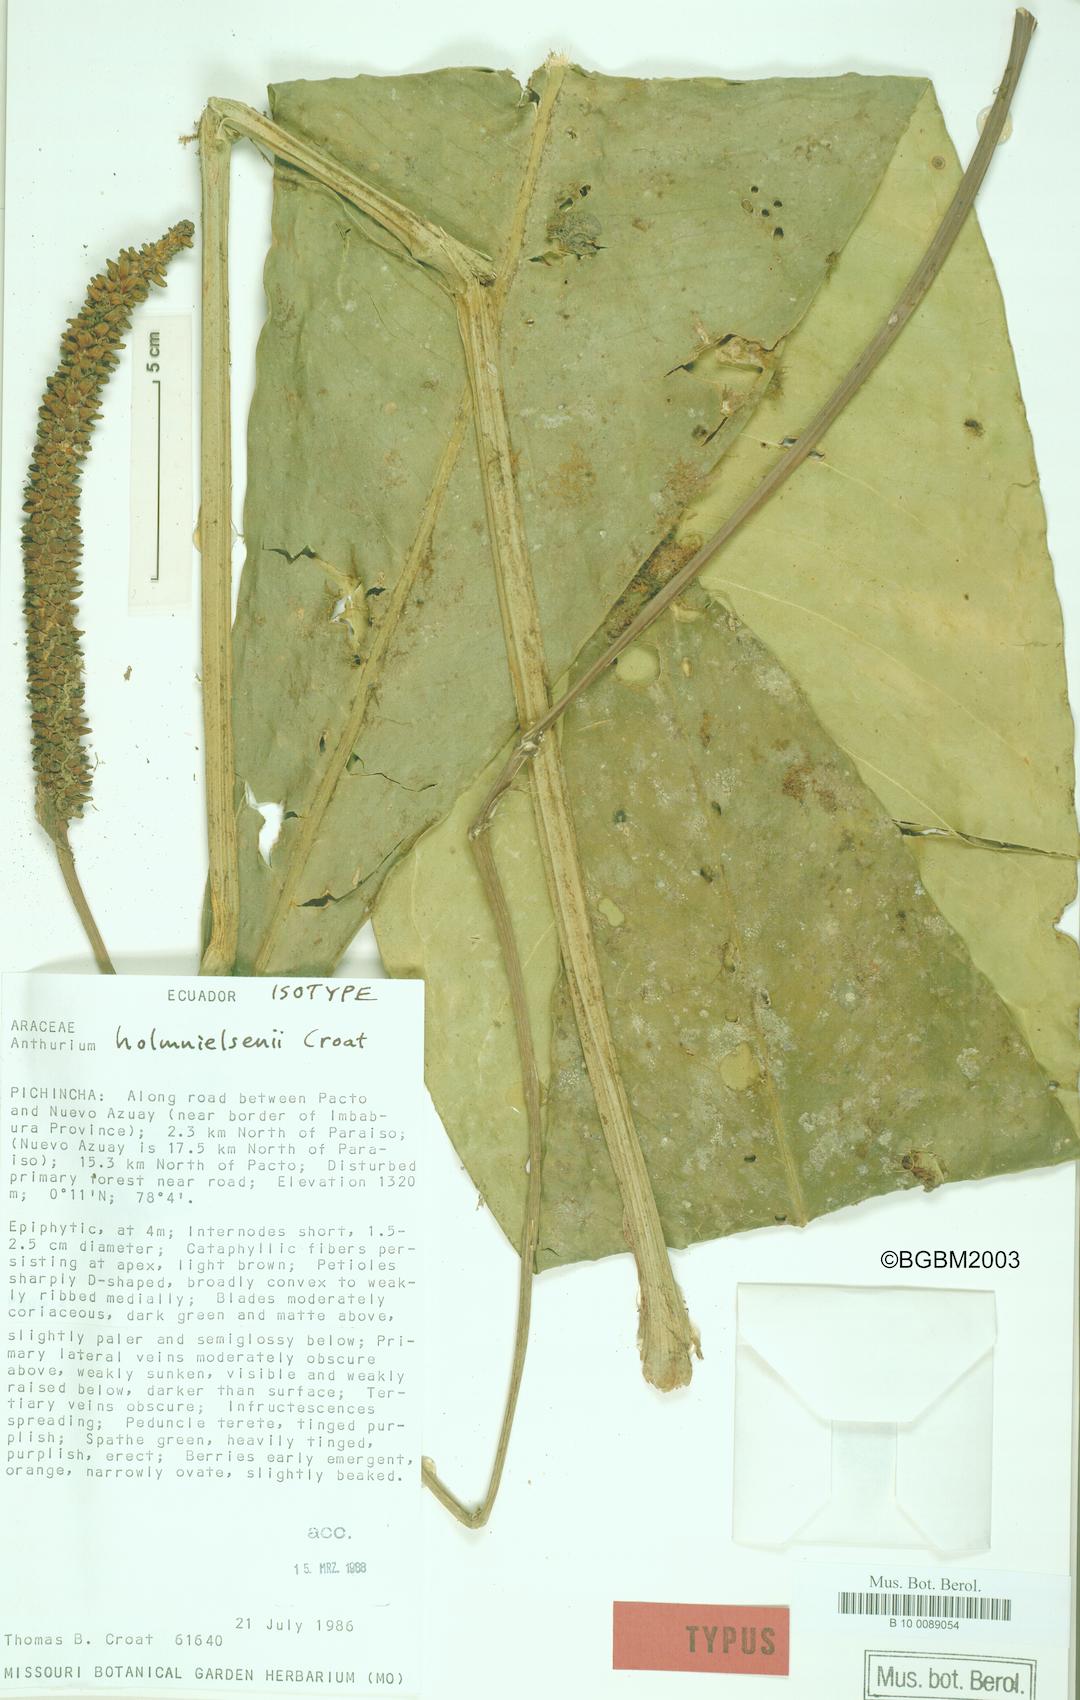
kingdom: Plantae
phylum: Tracheophyta
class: Liliopsida
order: Alismatales
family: Araceae
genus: Anthurium
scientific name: Anthurium holm-nielsenii
